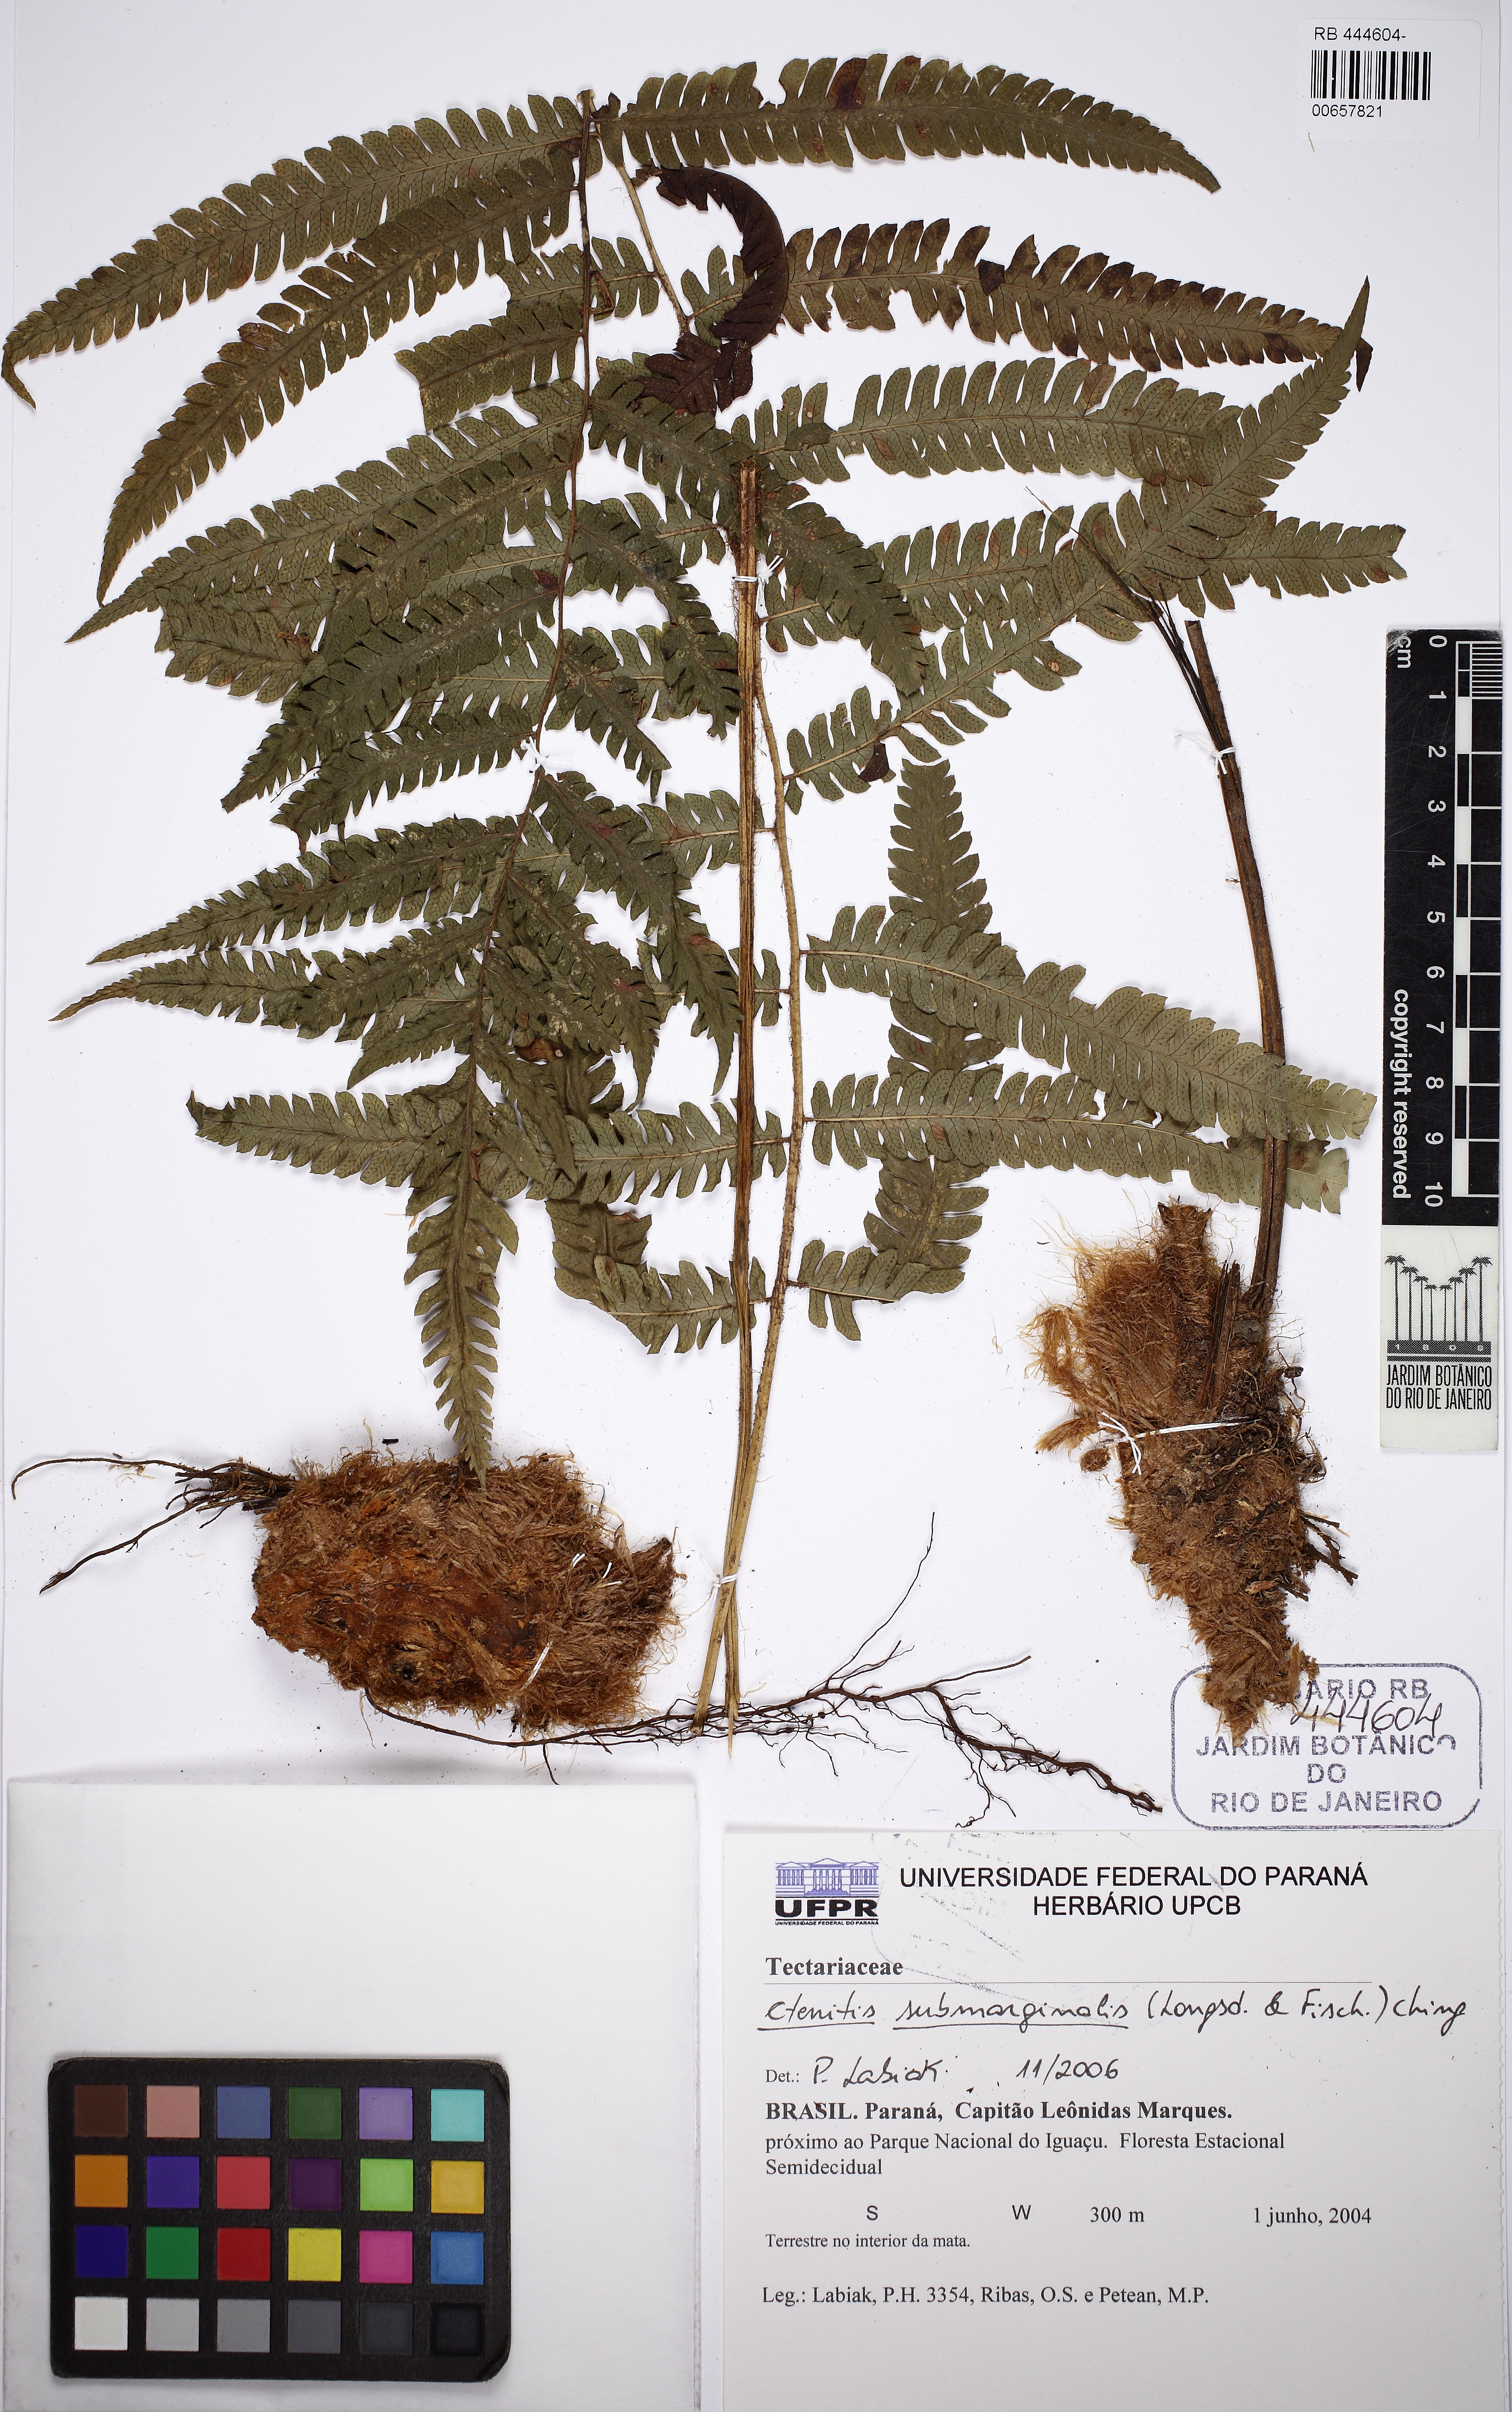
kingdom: Plantae
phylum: Tracheophyta
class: Polypodiopsida
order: Polypodiales
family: Dryopteridaceae
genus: Ctenitis
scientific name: Ctenitis submarginalis
